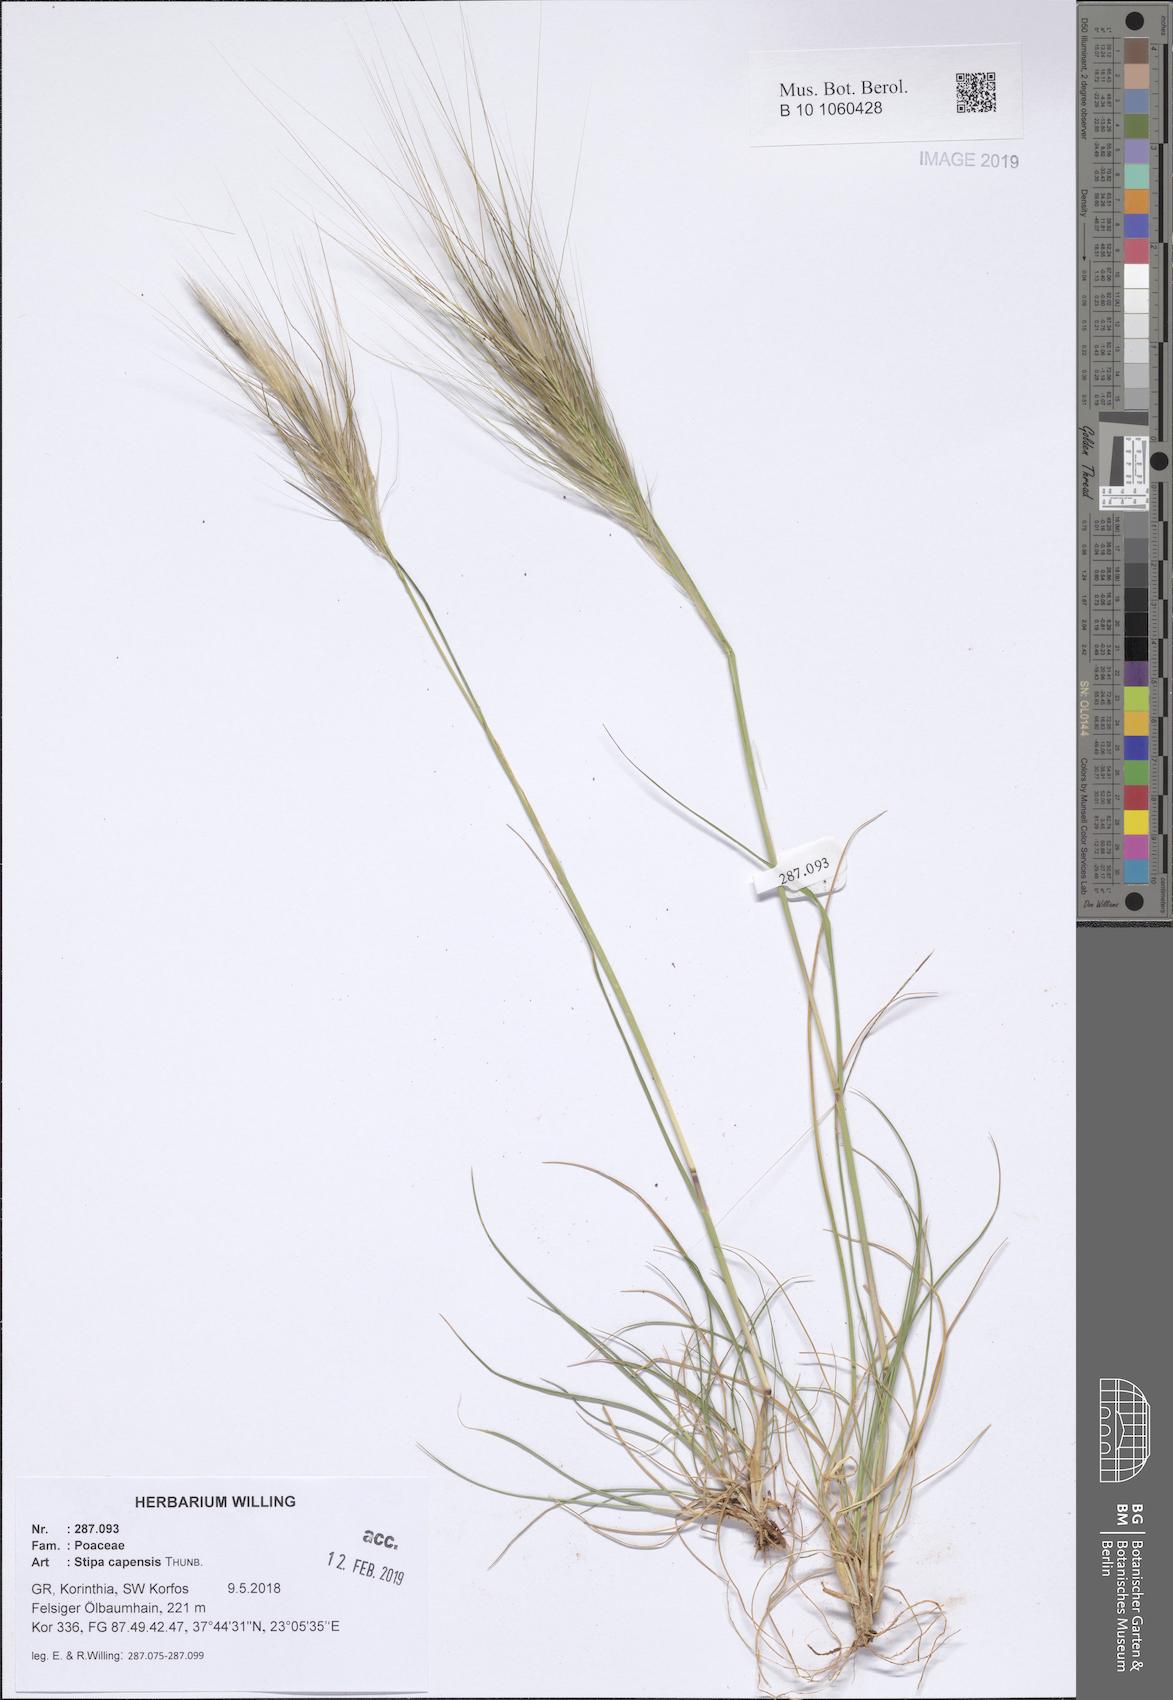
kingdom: Plantae
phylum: Tracheophyta
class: Liliopsida
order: Poales
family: Poaceae
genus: Stipellula
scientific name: Stipellula capensis
